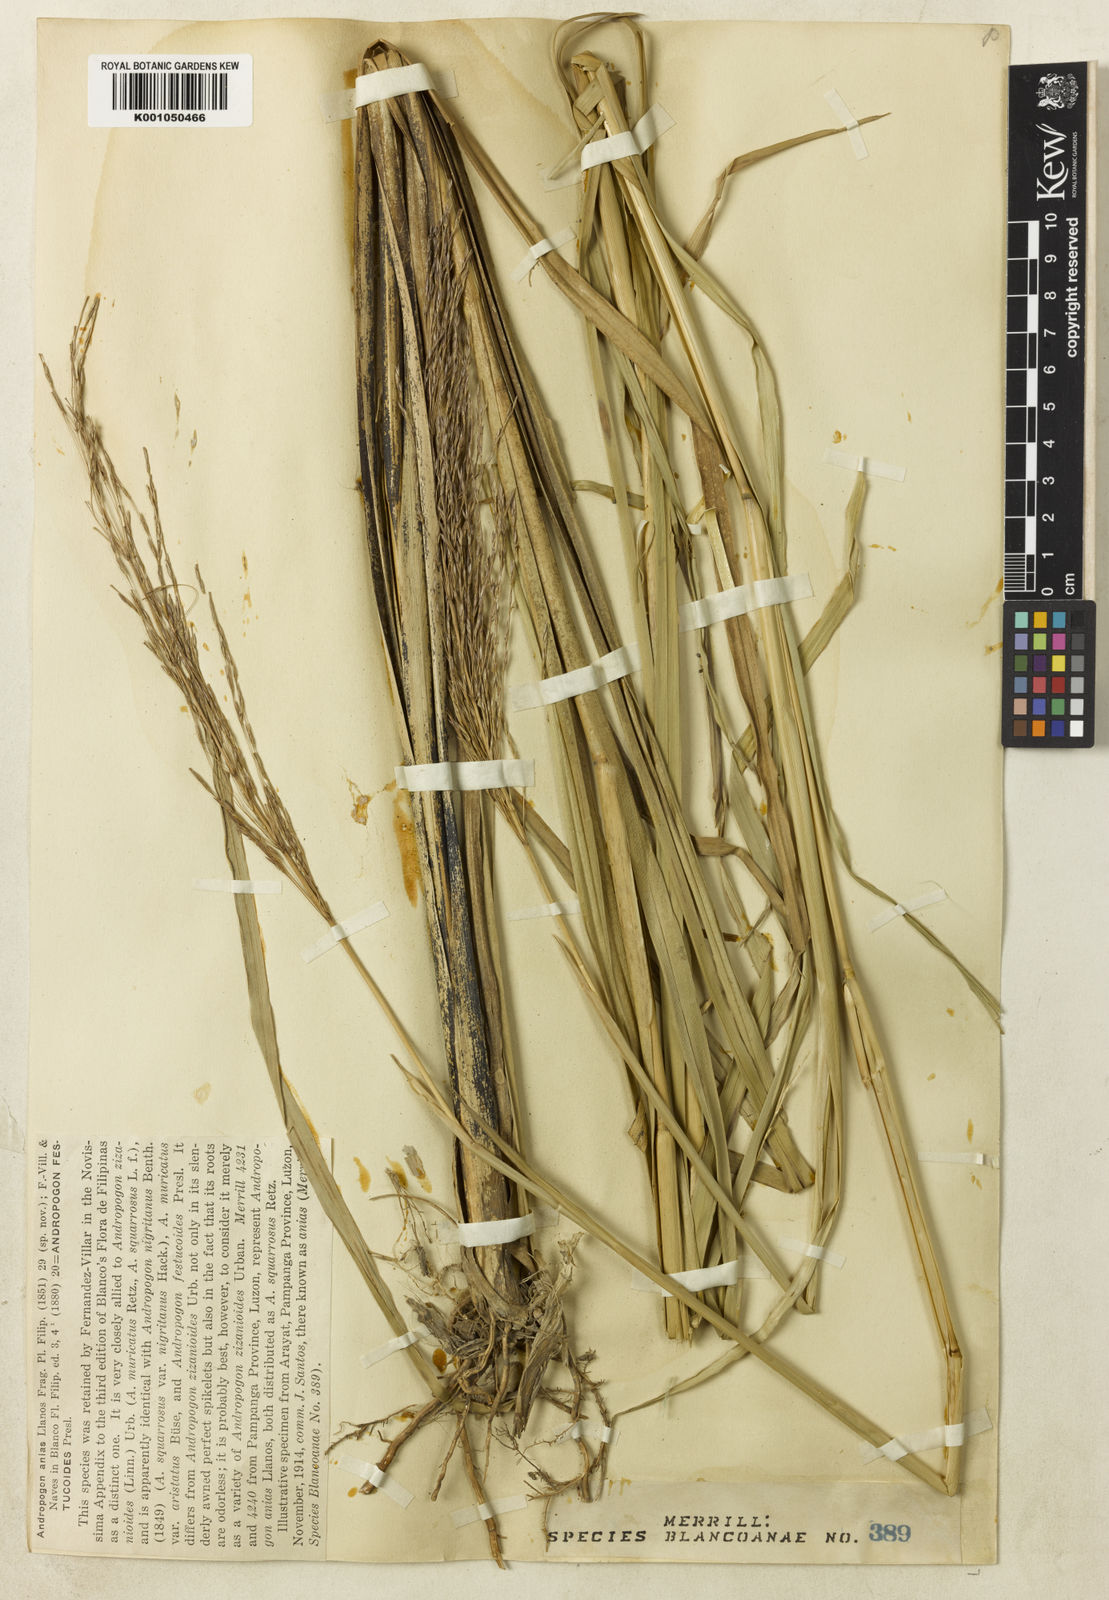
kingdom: Plantae
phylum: Tracheophyta
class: Liliopsida
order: Poales
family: Poaceae
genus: Chrysopogon
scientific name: Chrysopogon festucoides
